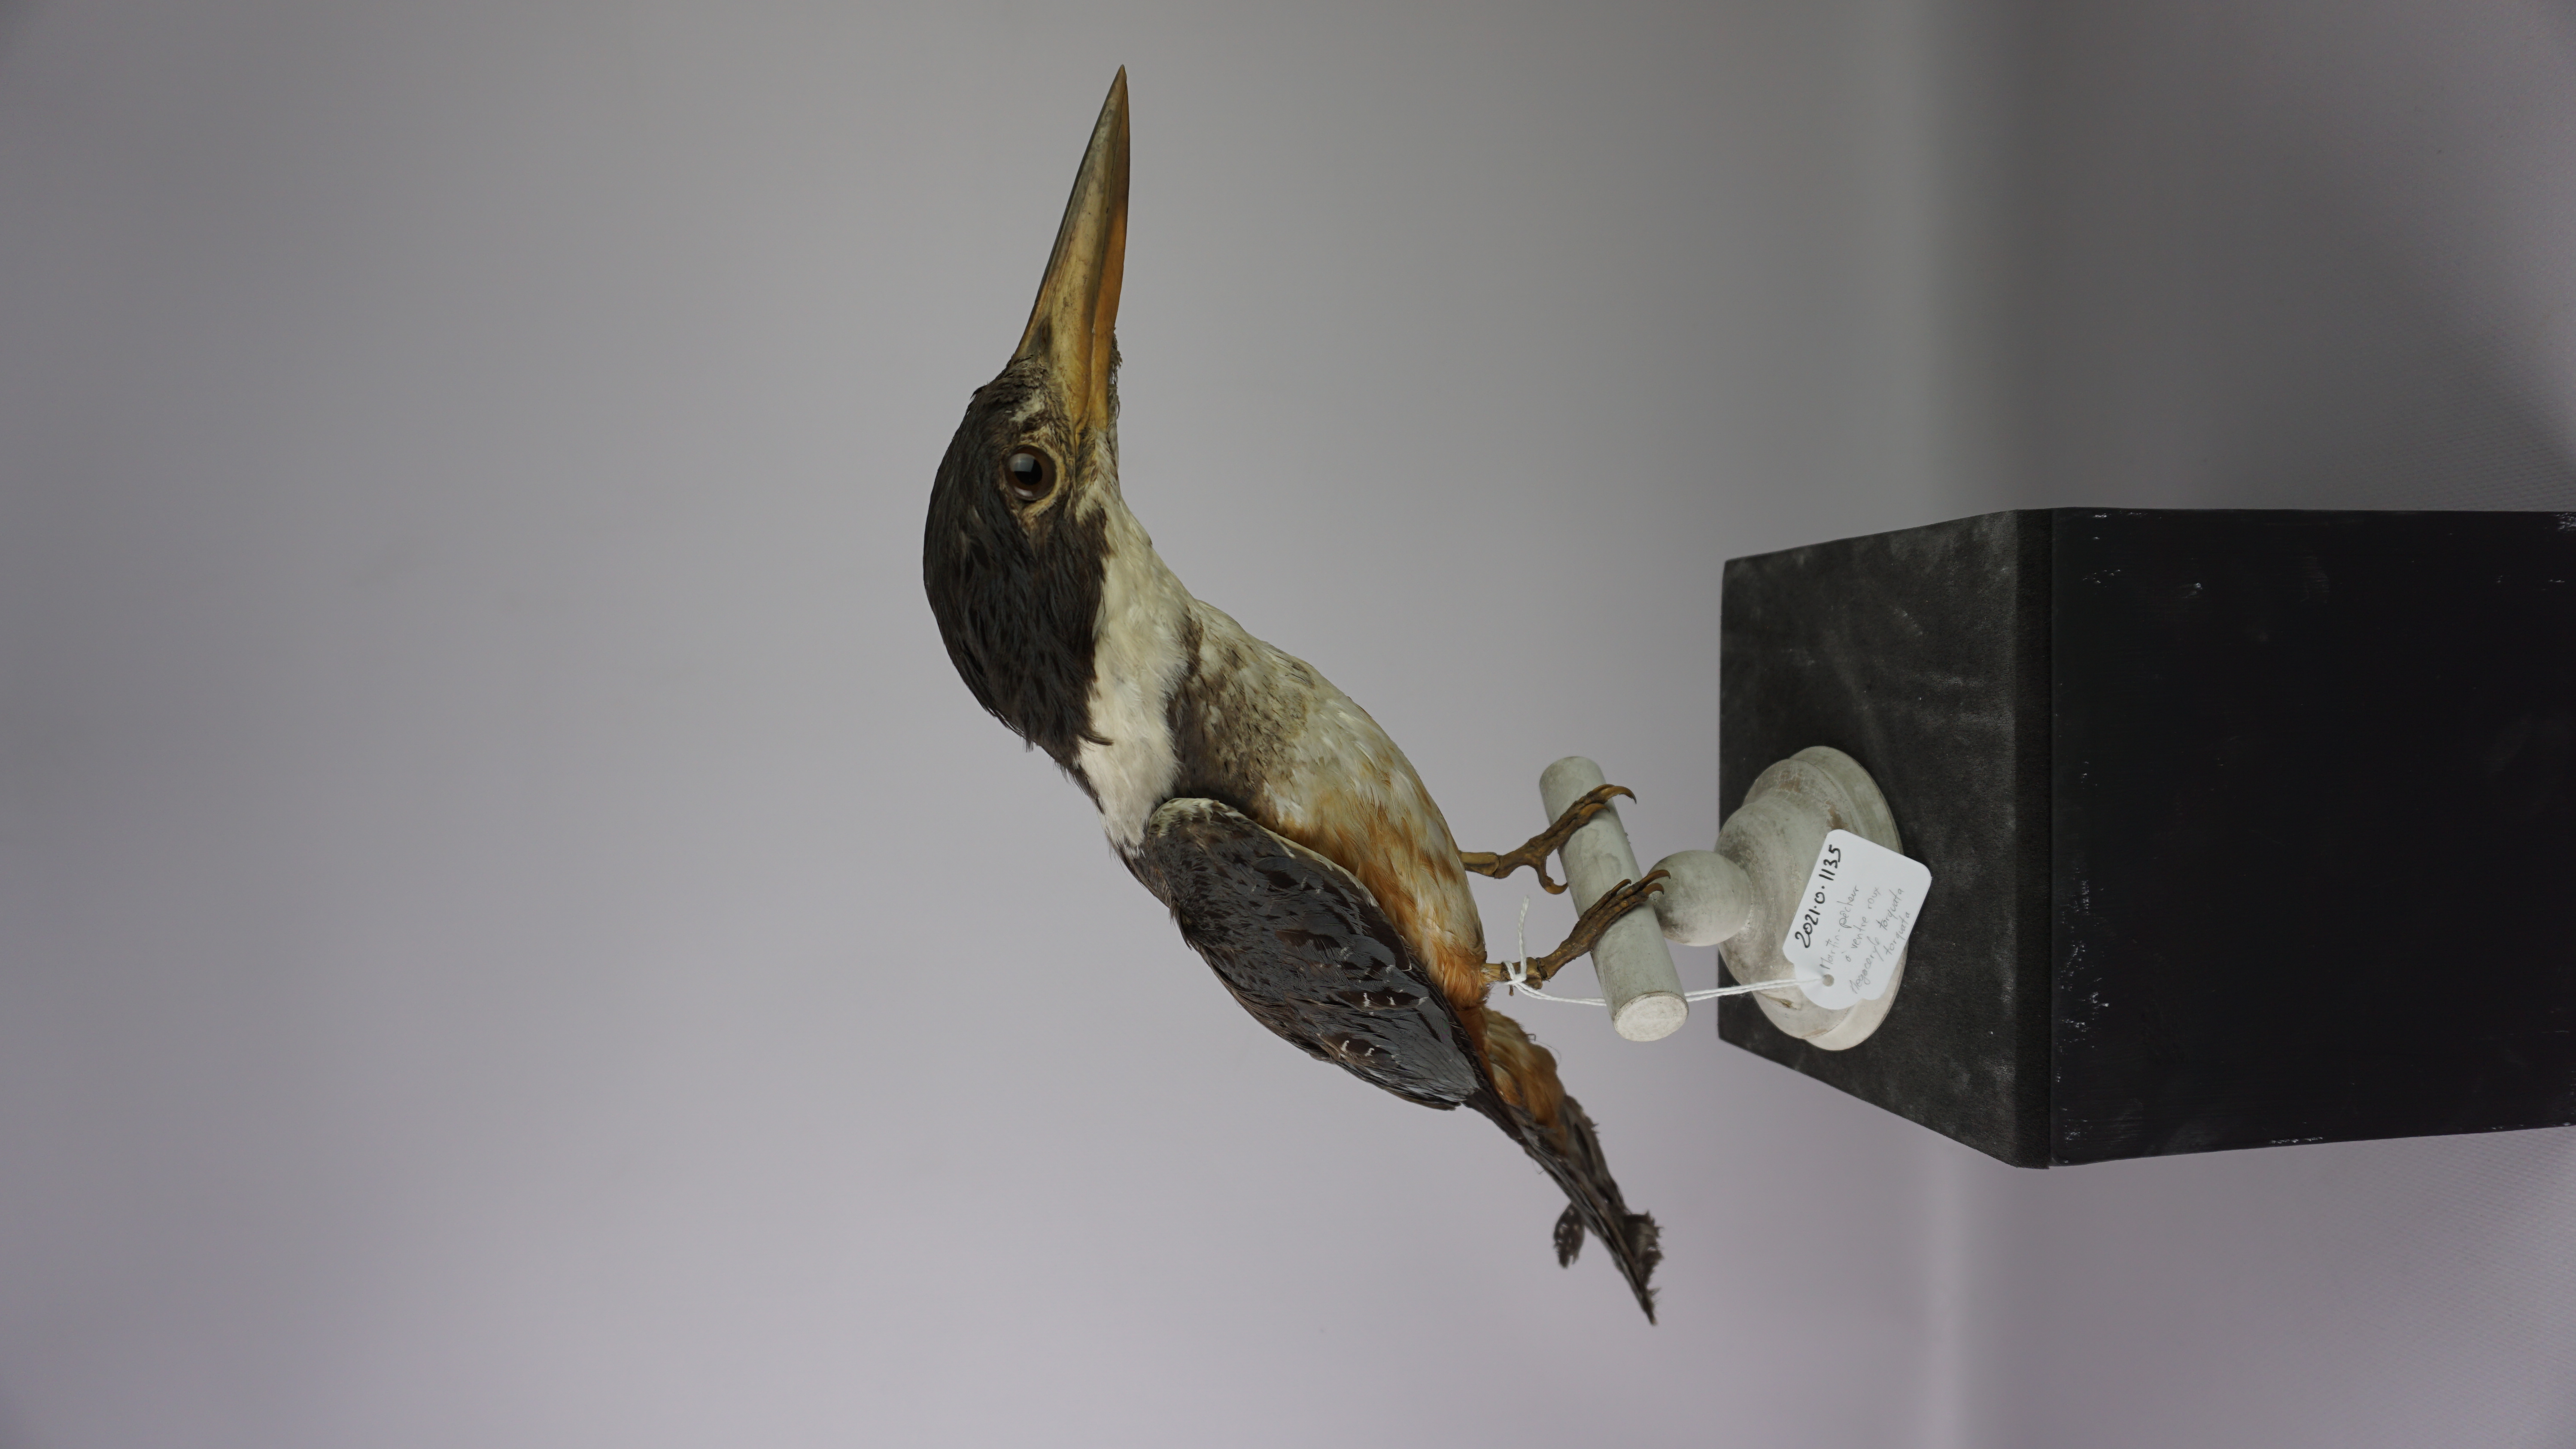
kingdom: Animalia
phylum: Chordata
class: Aves
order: Coraciiformes
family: Alcedinidae
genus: Megaceryle
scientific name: Megaceryle torquata
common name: Ringed kingfisher
